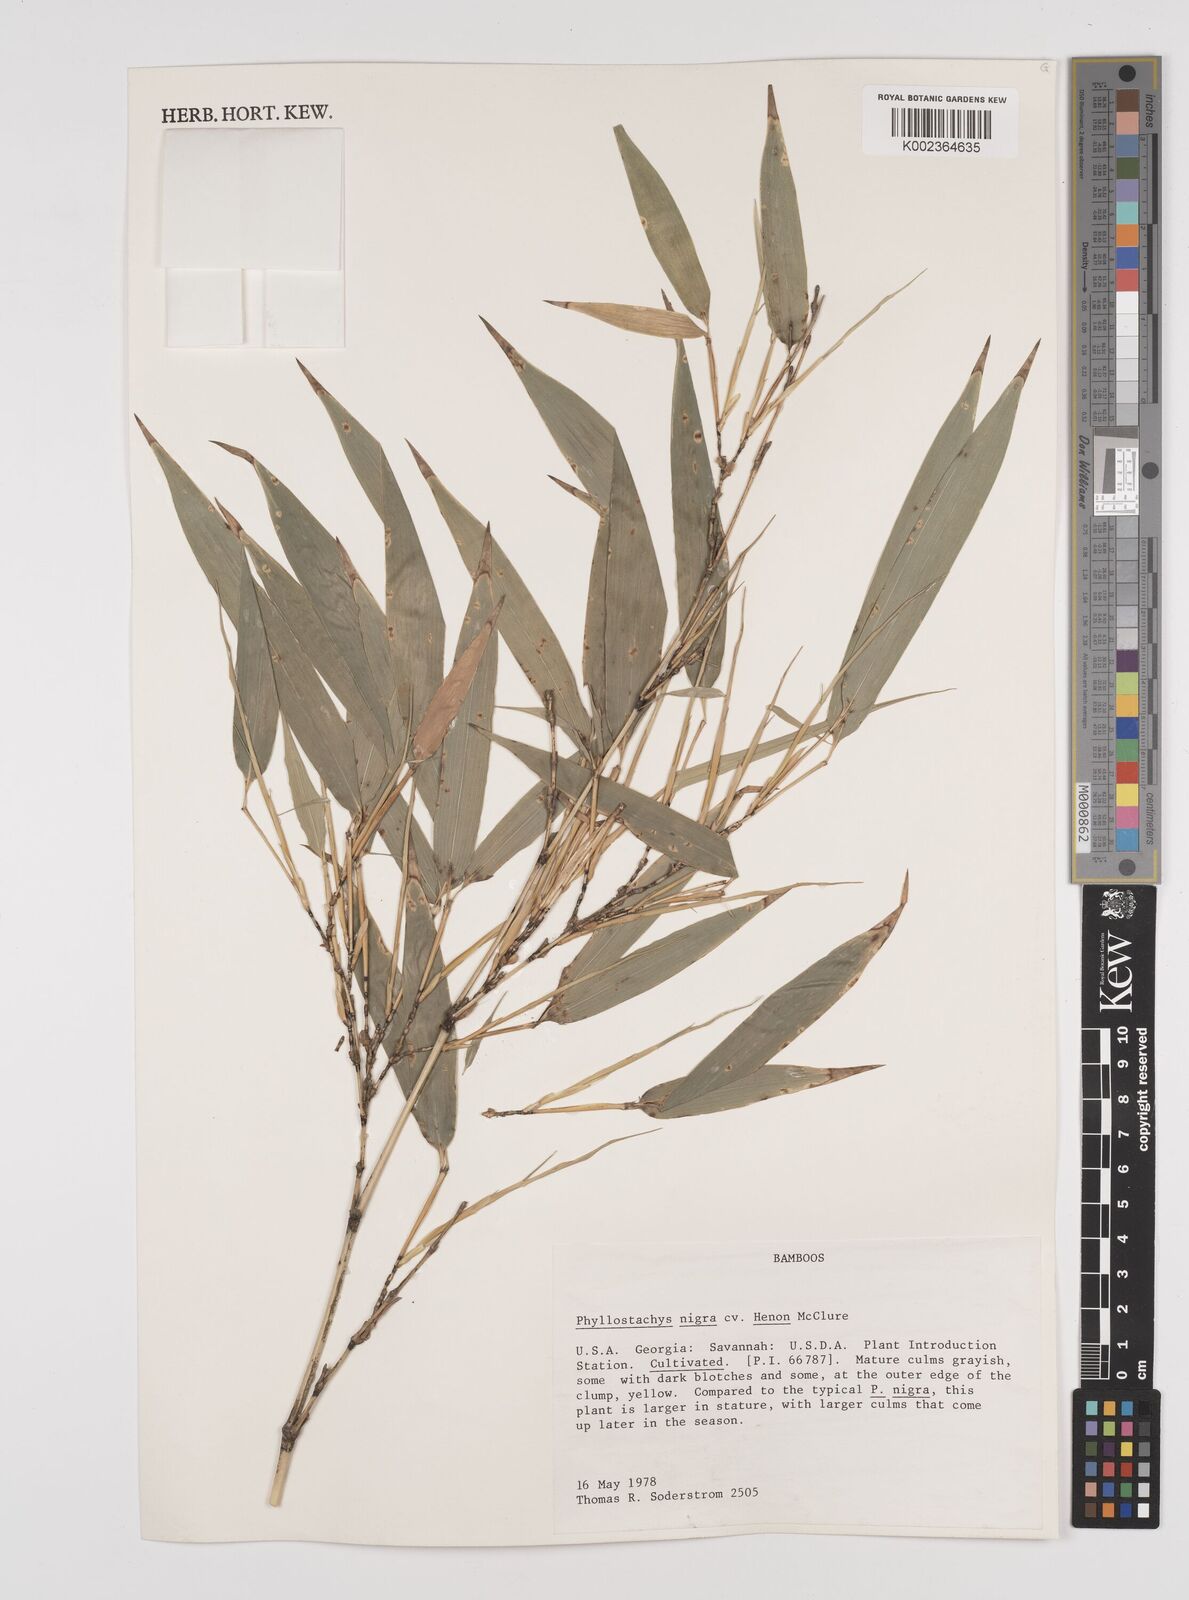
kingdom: Plantae
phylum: Tracheophyta
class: Liliopsida
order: Poales
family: Poaceae
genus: Phyllostachys
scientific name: Phyllostachys nigra
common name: Black bamboo
